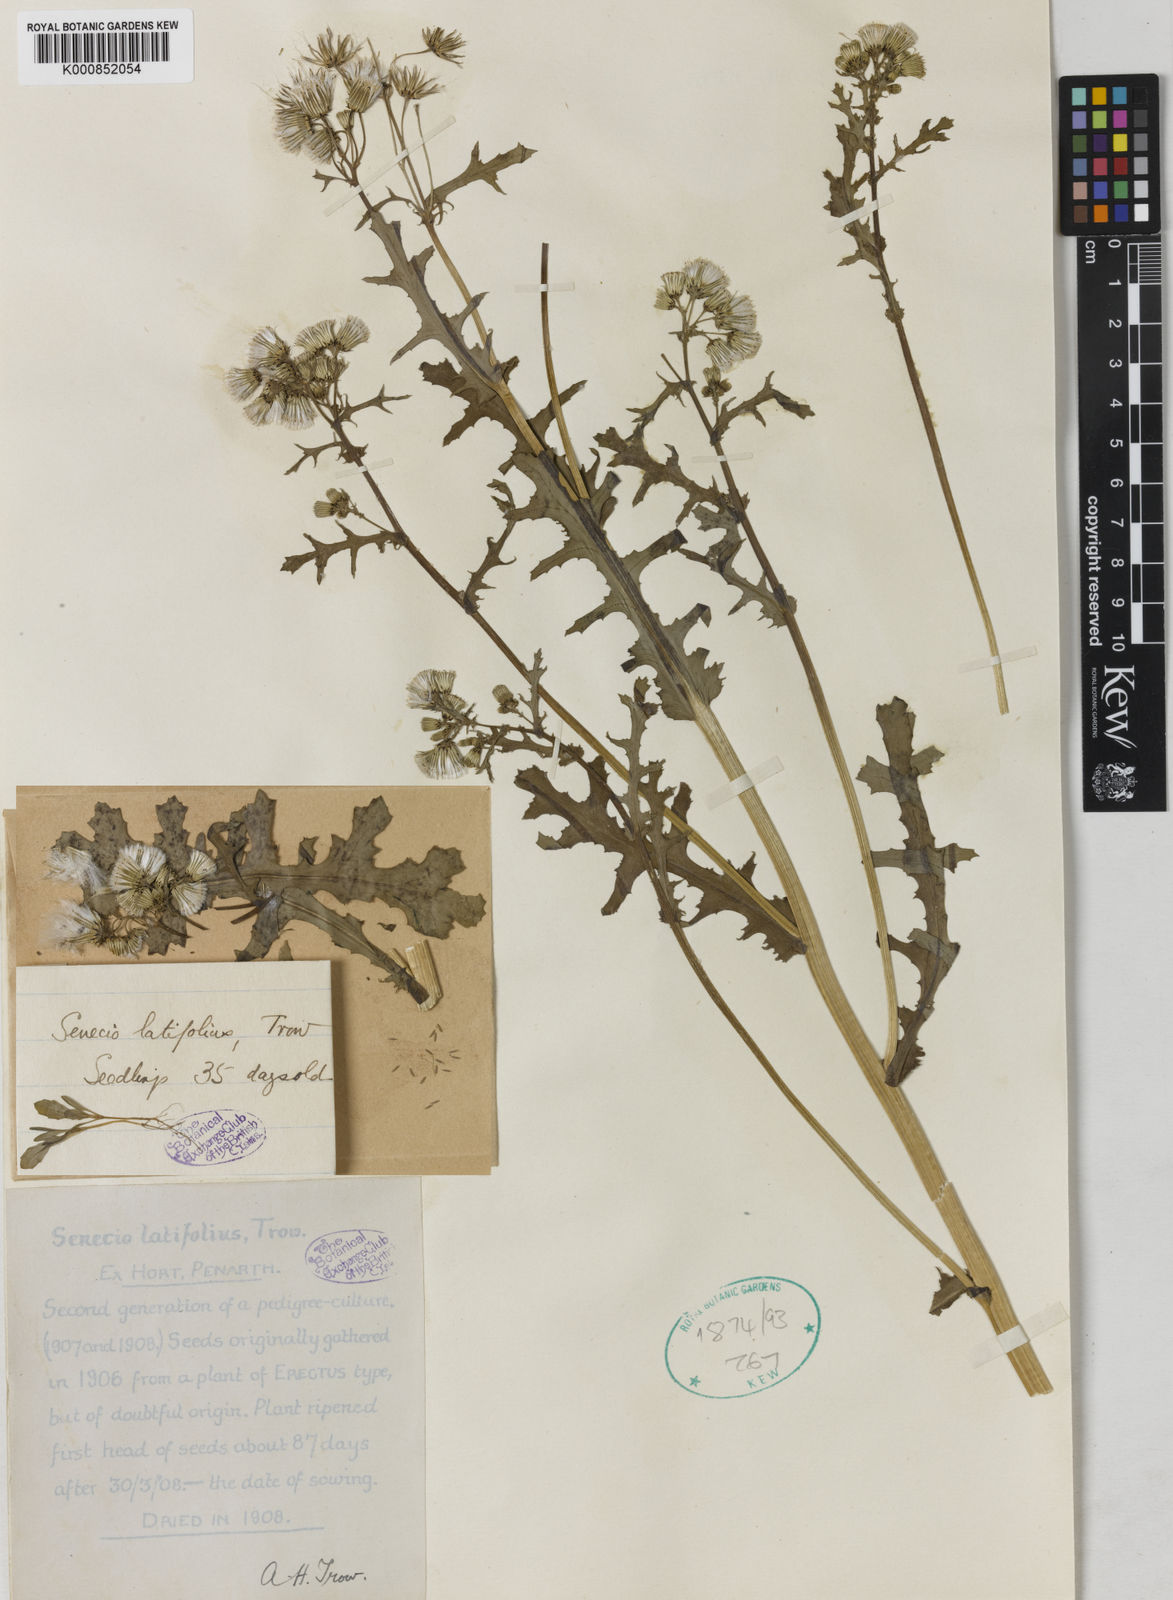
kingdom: Plantae
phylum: Tracheophyta
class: Magnoliopsida
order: Asterales
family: Asteraceae
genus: Senecio
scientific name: Senecio vulgaris
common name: Old-man-in-the-spring
